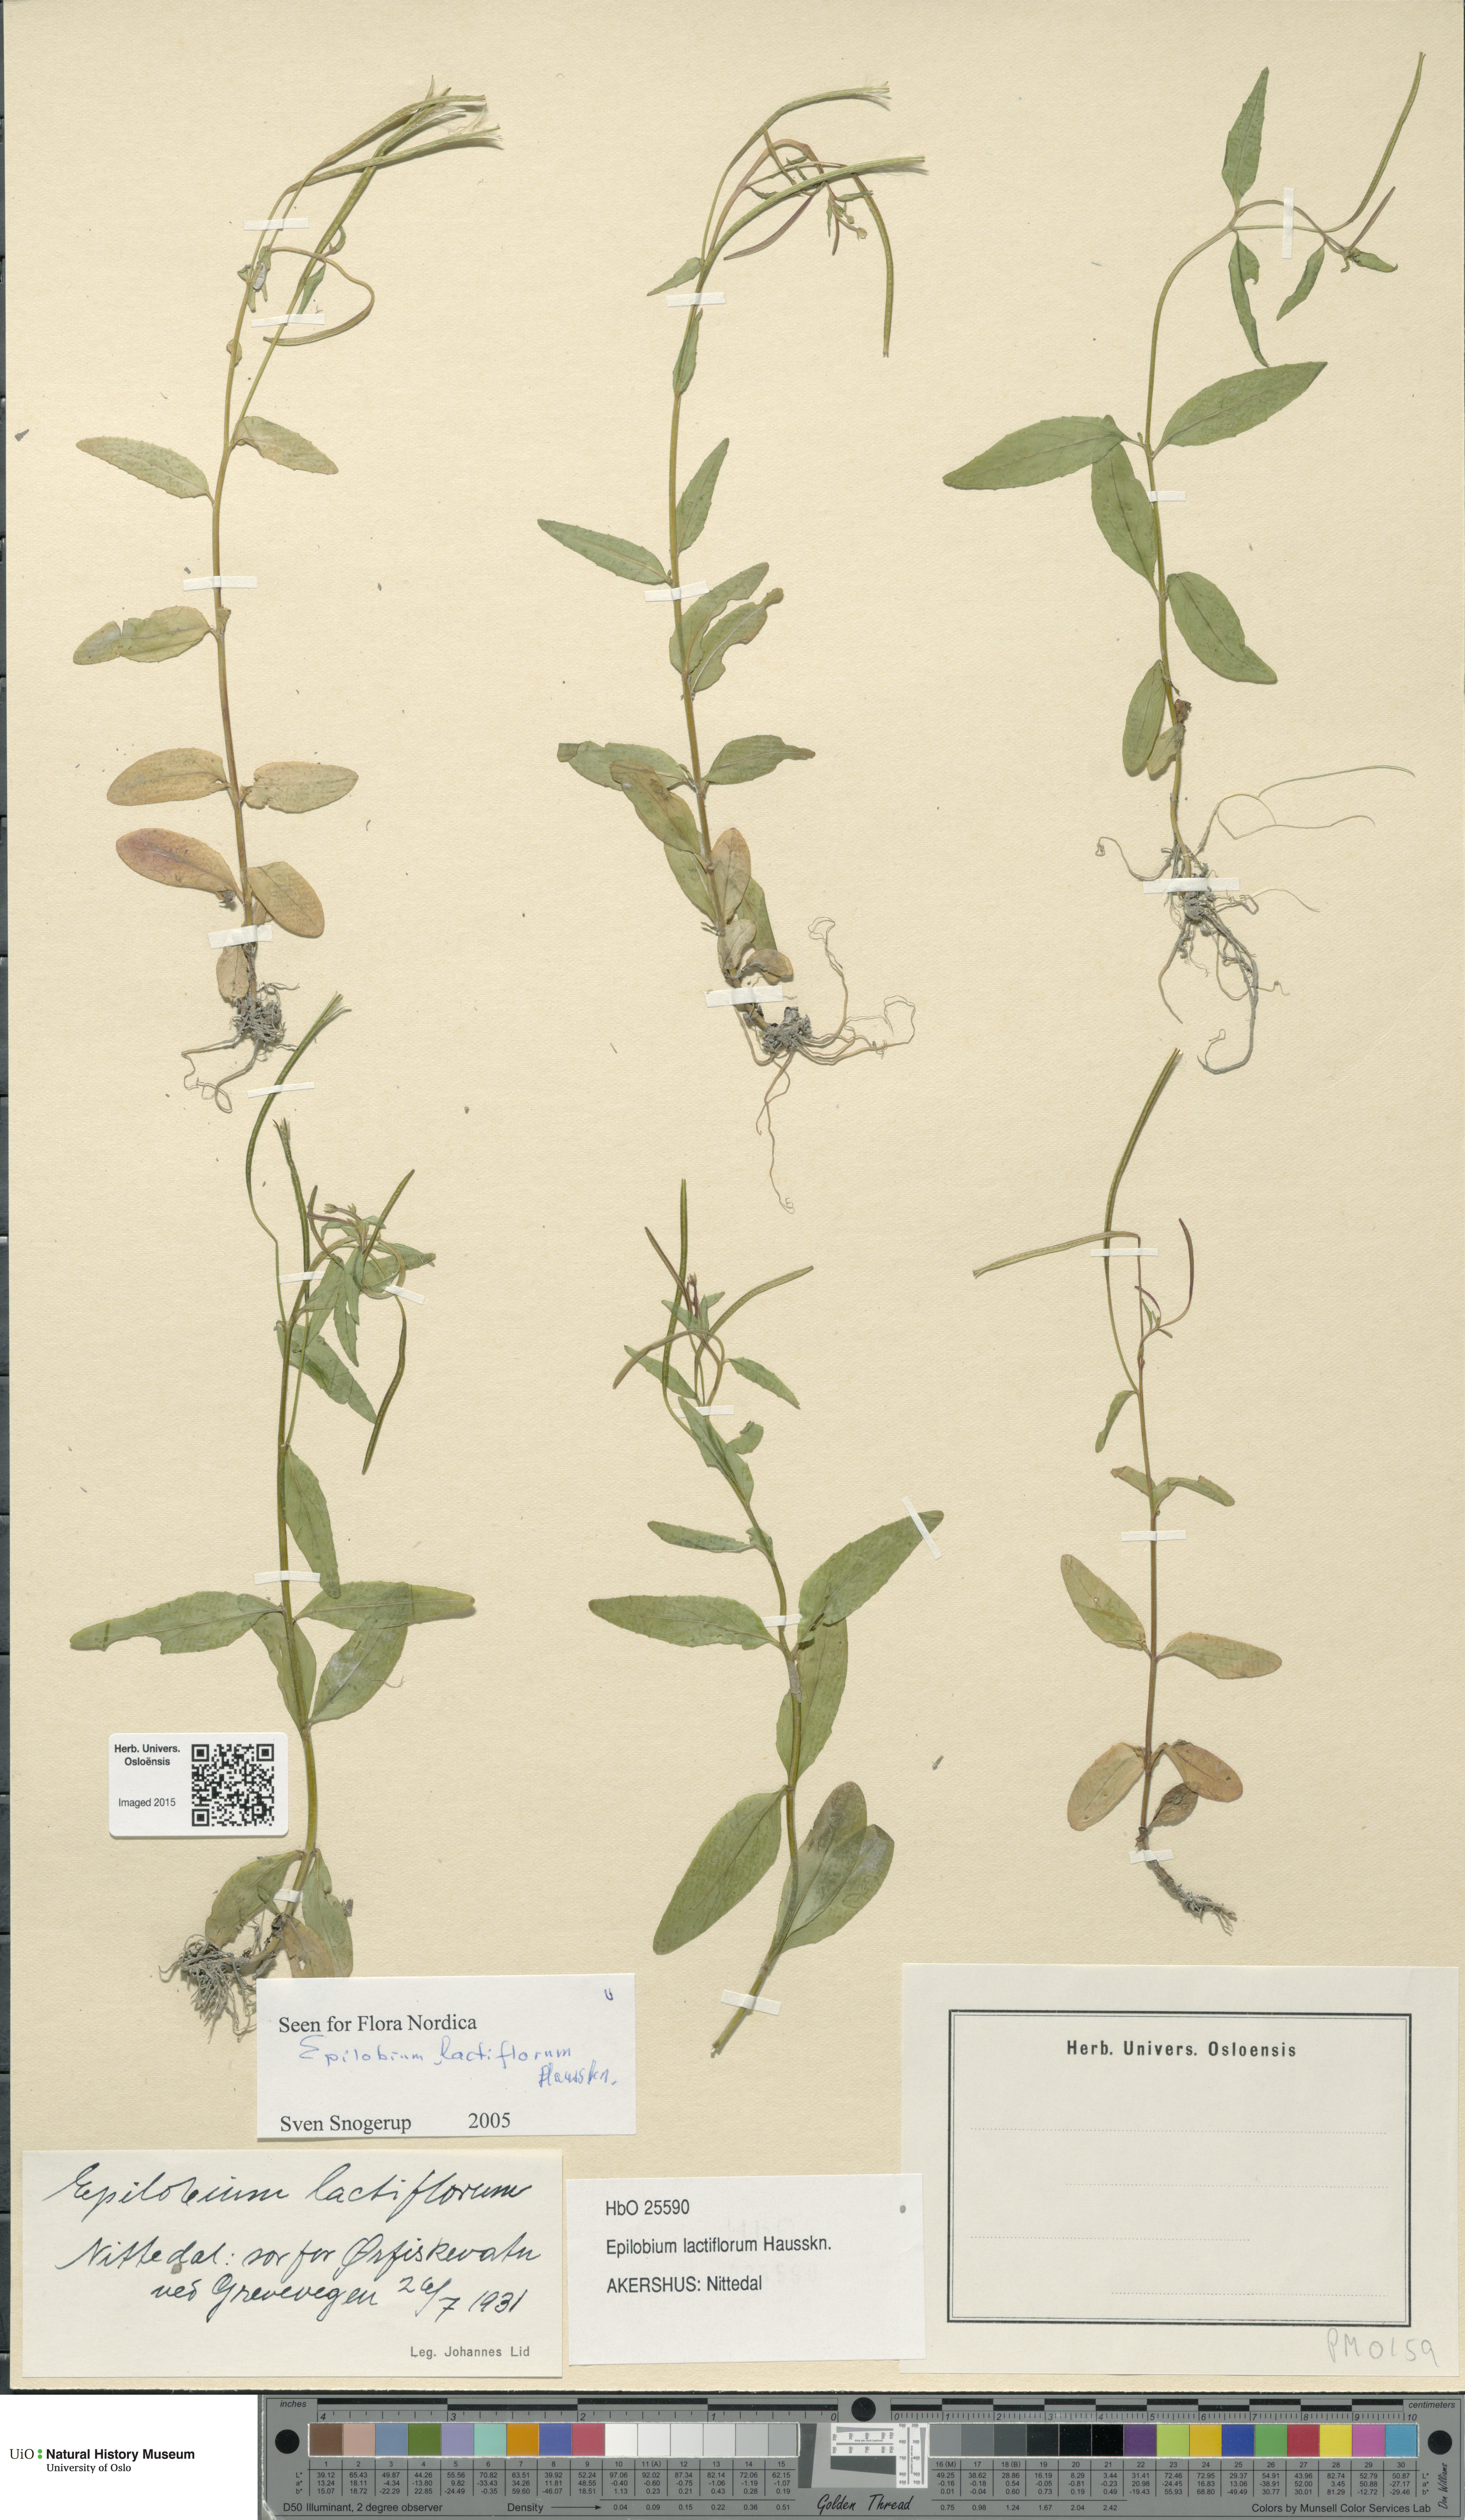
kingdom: Plantae
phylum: Tracheophyta
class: Magnoliopsida
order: Myrtales
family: Onagraceae
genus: Epilobium
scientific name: Epilobium lactiflorum
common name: Milkflower willowherb
